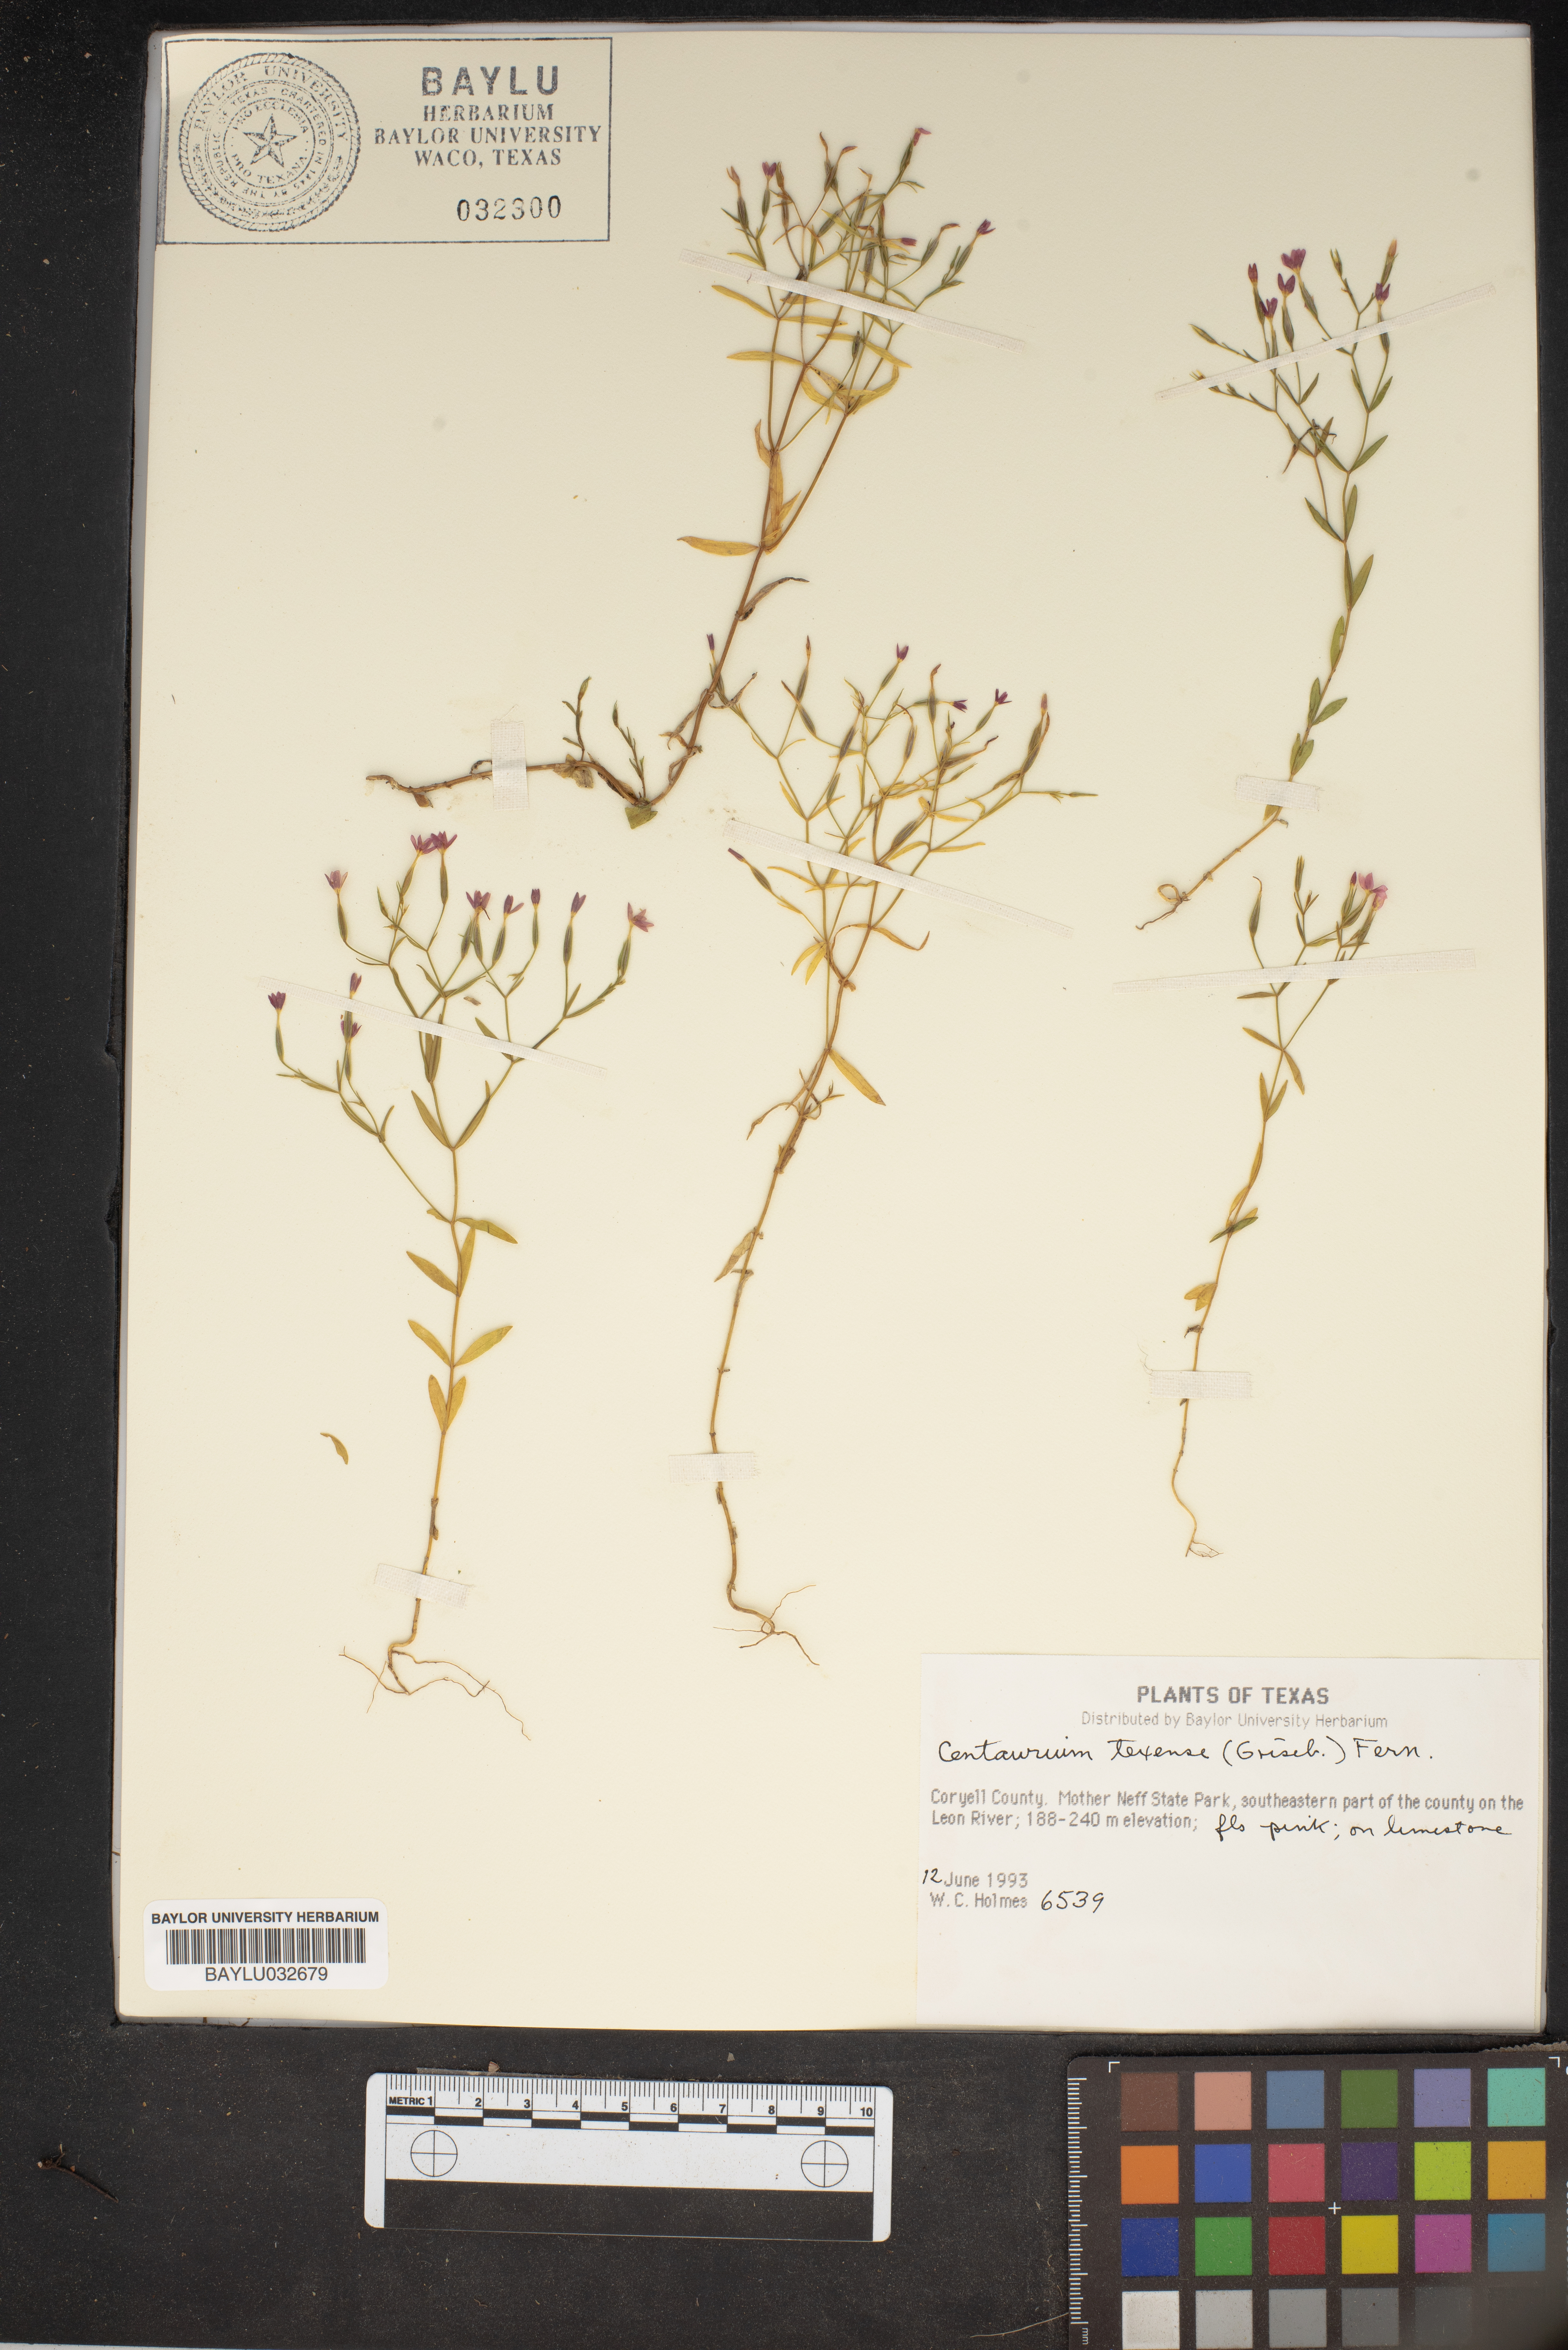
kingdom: Plantae
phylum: Tracheophyta
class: Magnoliopsida
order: Gentianales
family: Gentianaceae
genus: Zeltnera
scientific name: Zeltnera texensis
